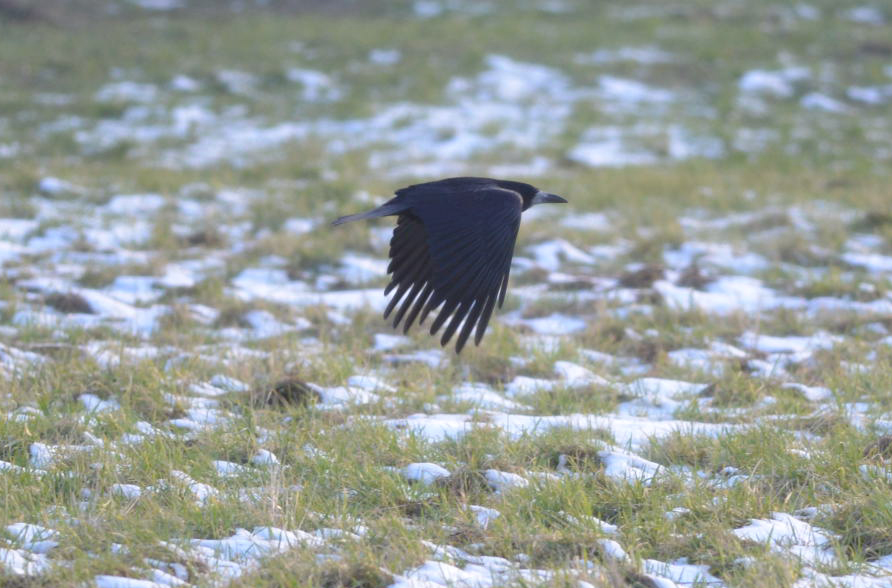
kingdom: Animalia
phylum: Chordata
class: Aves
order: Passeriformes
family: Corvidae
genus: Corvus
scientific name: Corvus frugilegus
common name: Rook
